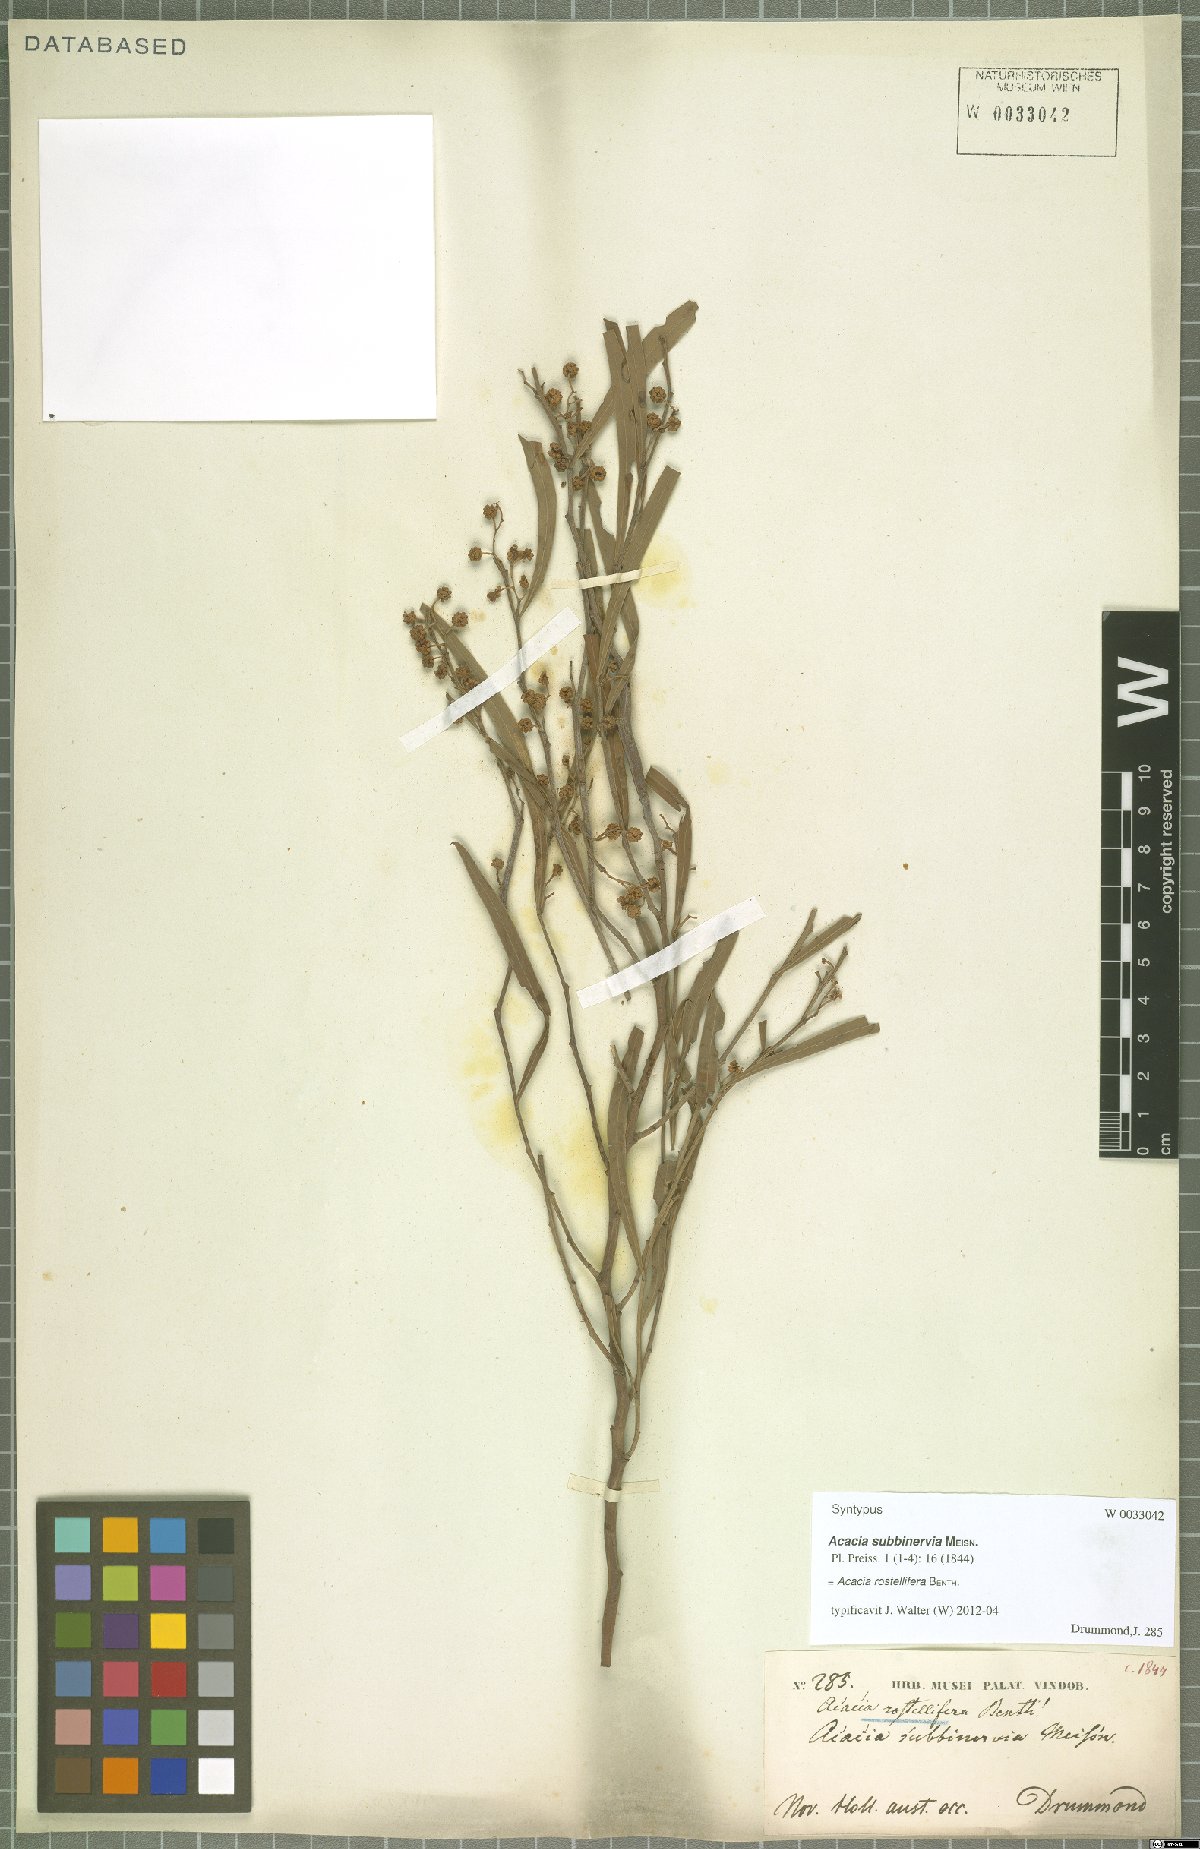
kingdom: Plantae
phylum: Tracheophyta
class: Magnoliopsida
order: Fabales
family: Fabaceae
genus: Acacia
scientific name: Acacia rostellifera
